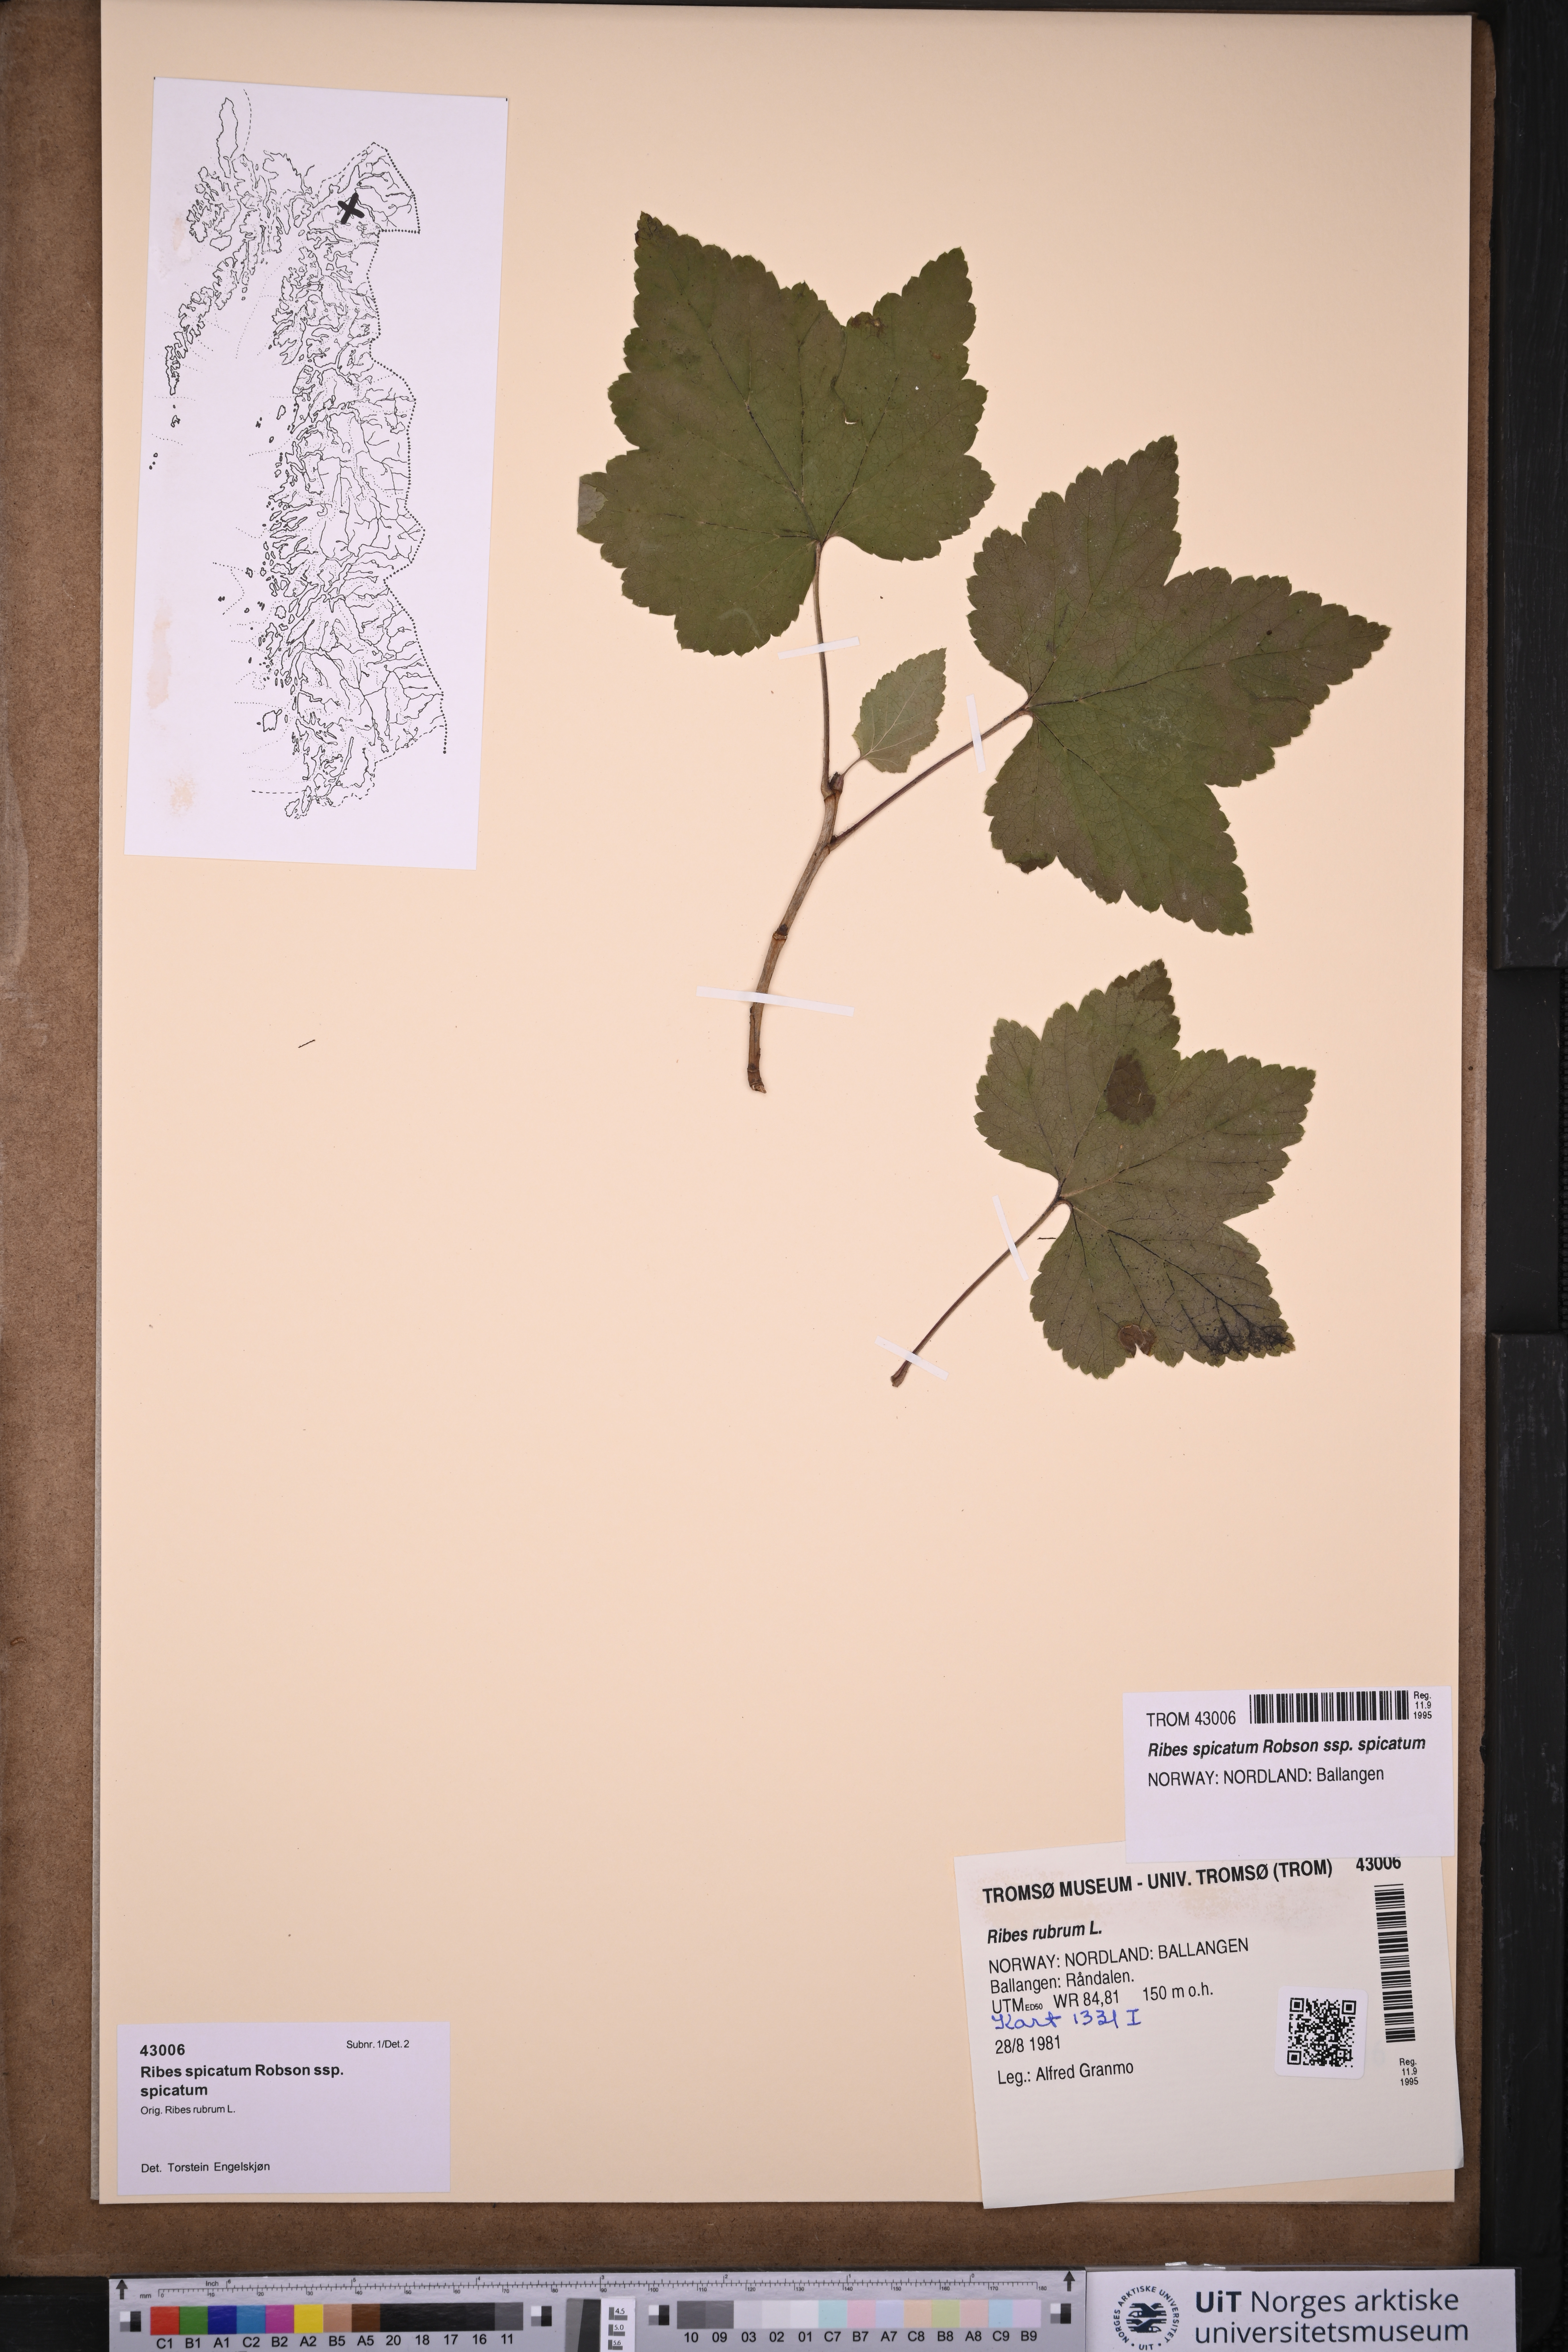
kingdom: Plantae
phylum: Tracheophyta
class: Magnoliopsida
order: Saxifragales
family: Grossulariaceae
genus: Ribes
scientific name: Ribes spicatum
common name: Downy currant
